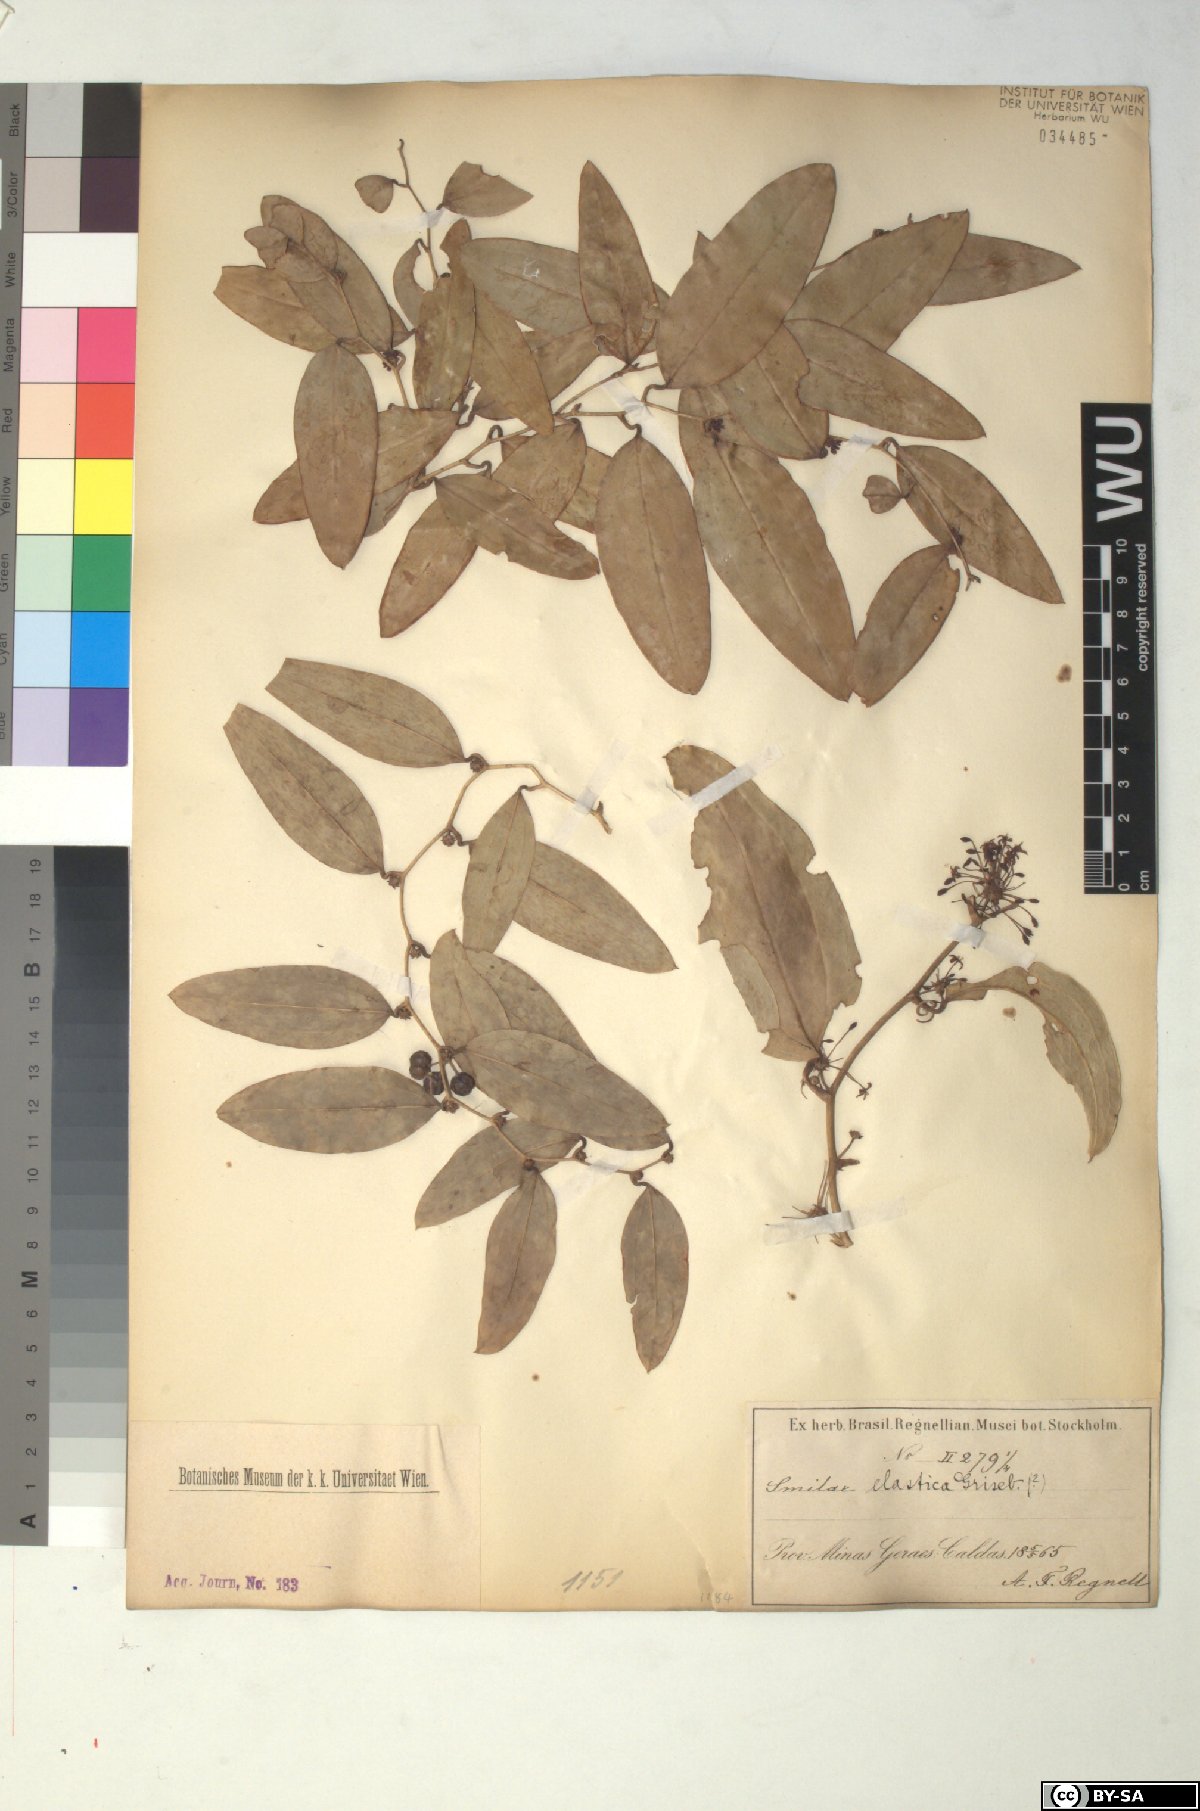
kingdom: Plantae
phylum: Tracheophyta
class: Liliopsida
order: Liliales
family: Smilacaceae
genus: Smilax
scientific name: Smilax elastica
